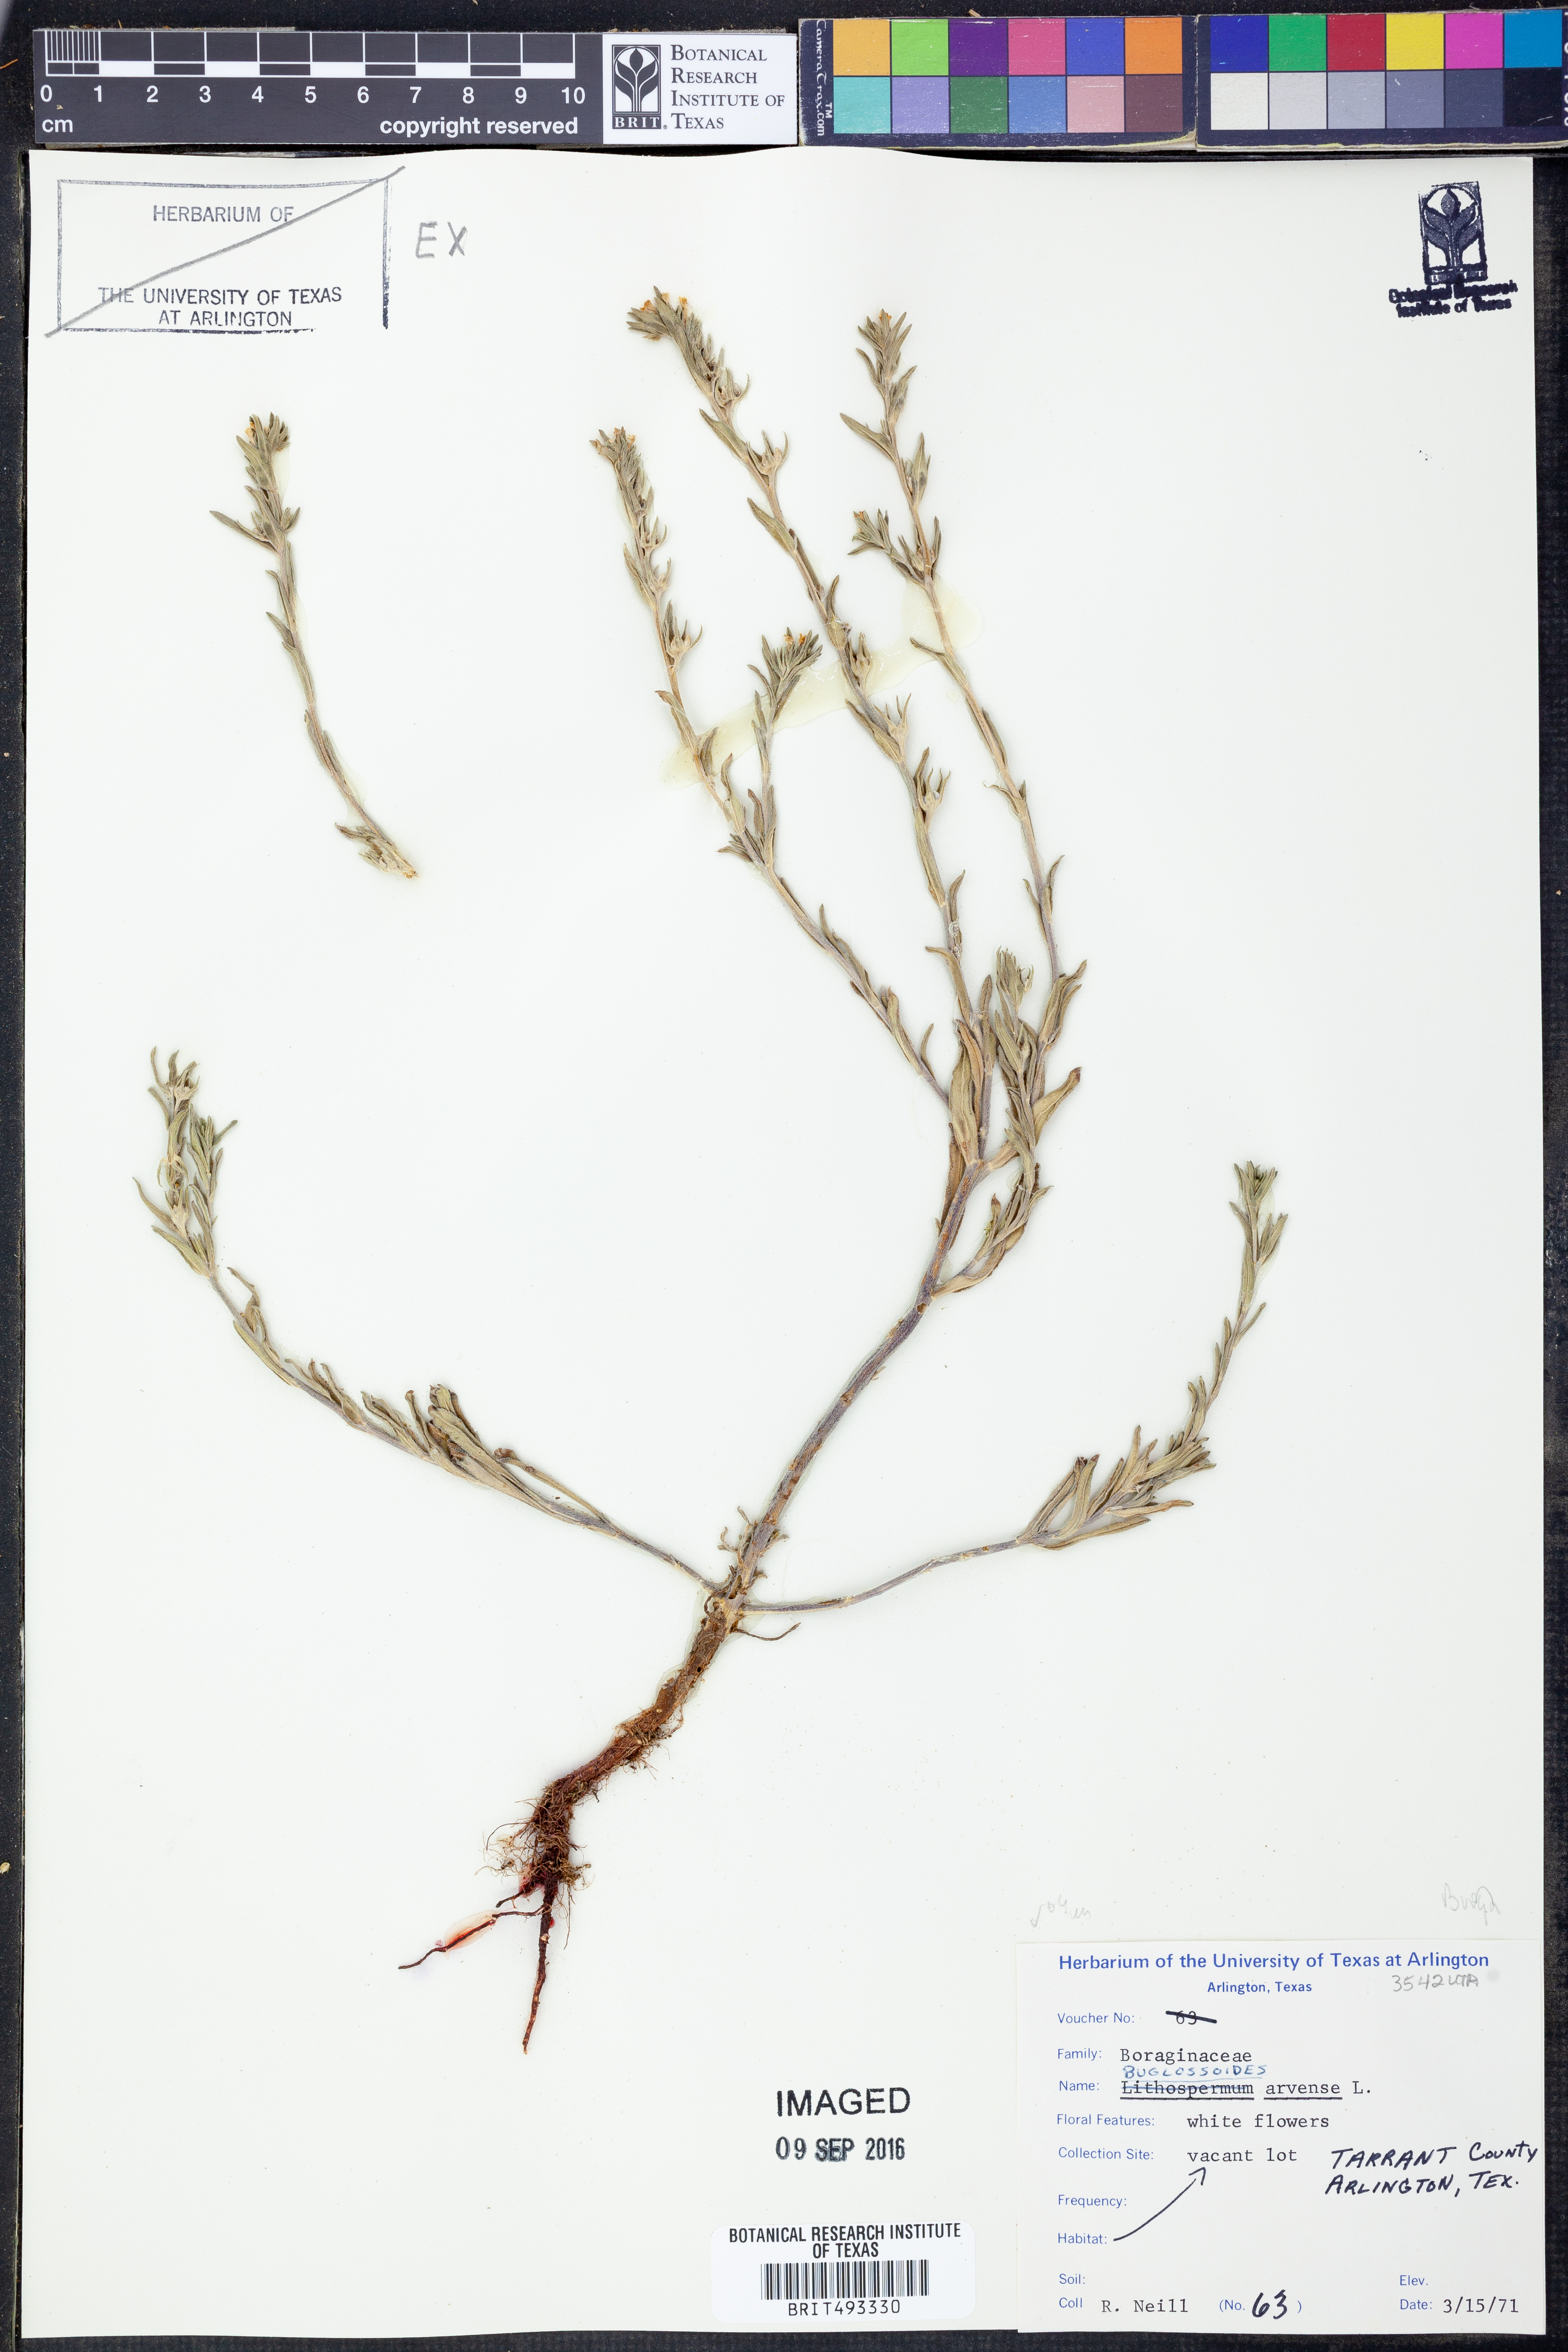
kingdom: Plantae
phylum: Tracheophyta
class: Magnoliopsida
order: Boraginales
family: Boraginaceae
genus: Buglossoides
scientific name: Buglossoides arvensis
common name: Corn gromwell
